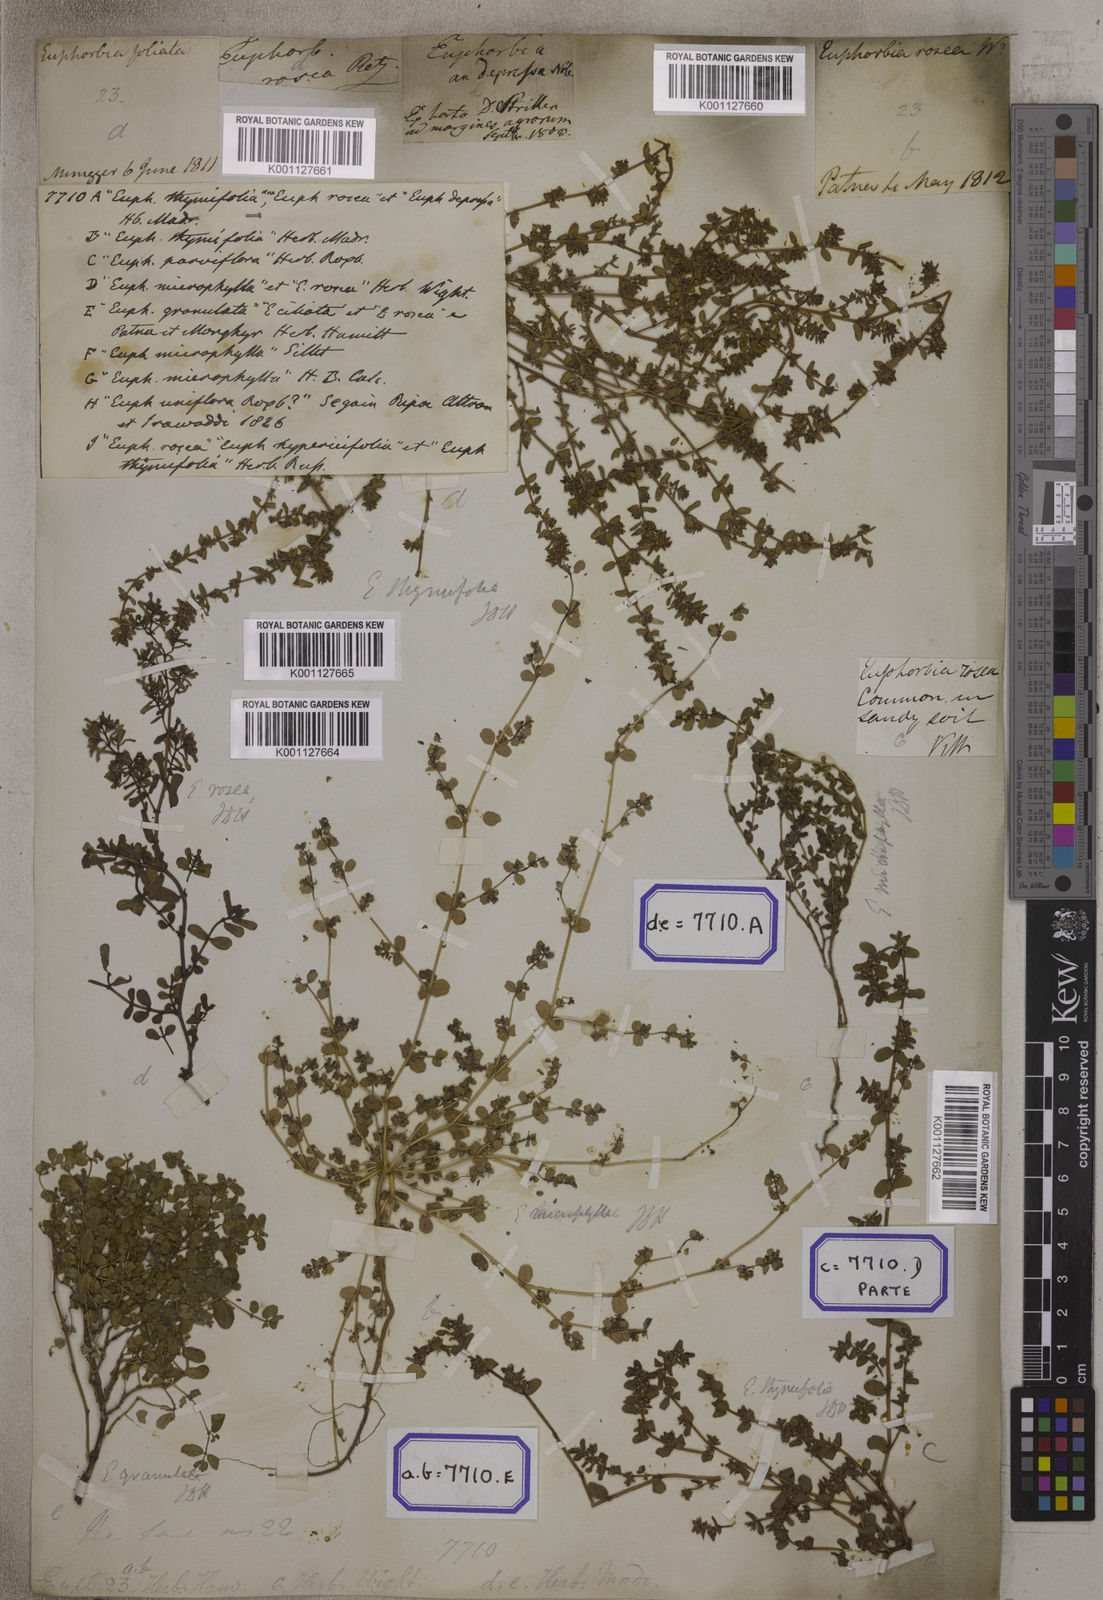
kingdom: Plantae
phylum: Tracheophyta
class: Magnoliopsida
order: Malpighiales
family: Euphorbiaceae
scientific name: Euphorbiaceae
